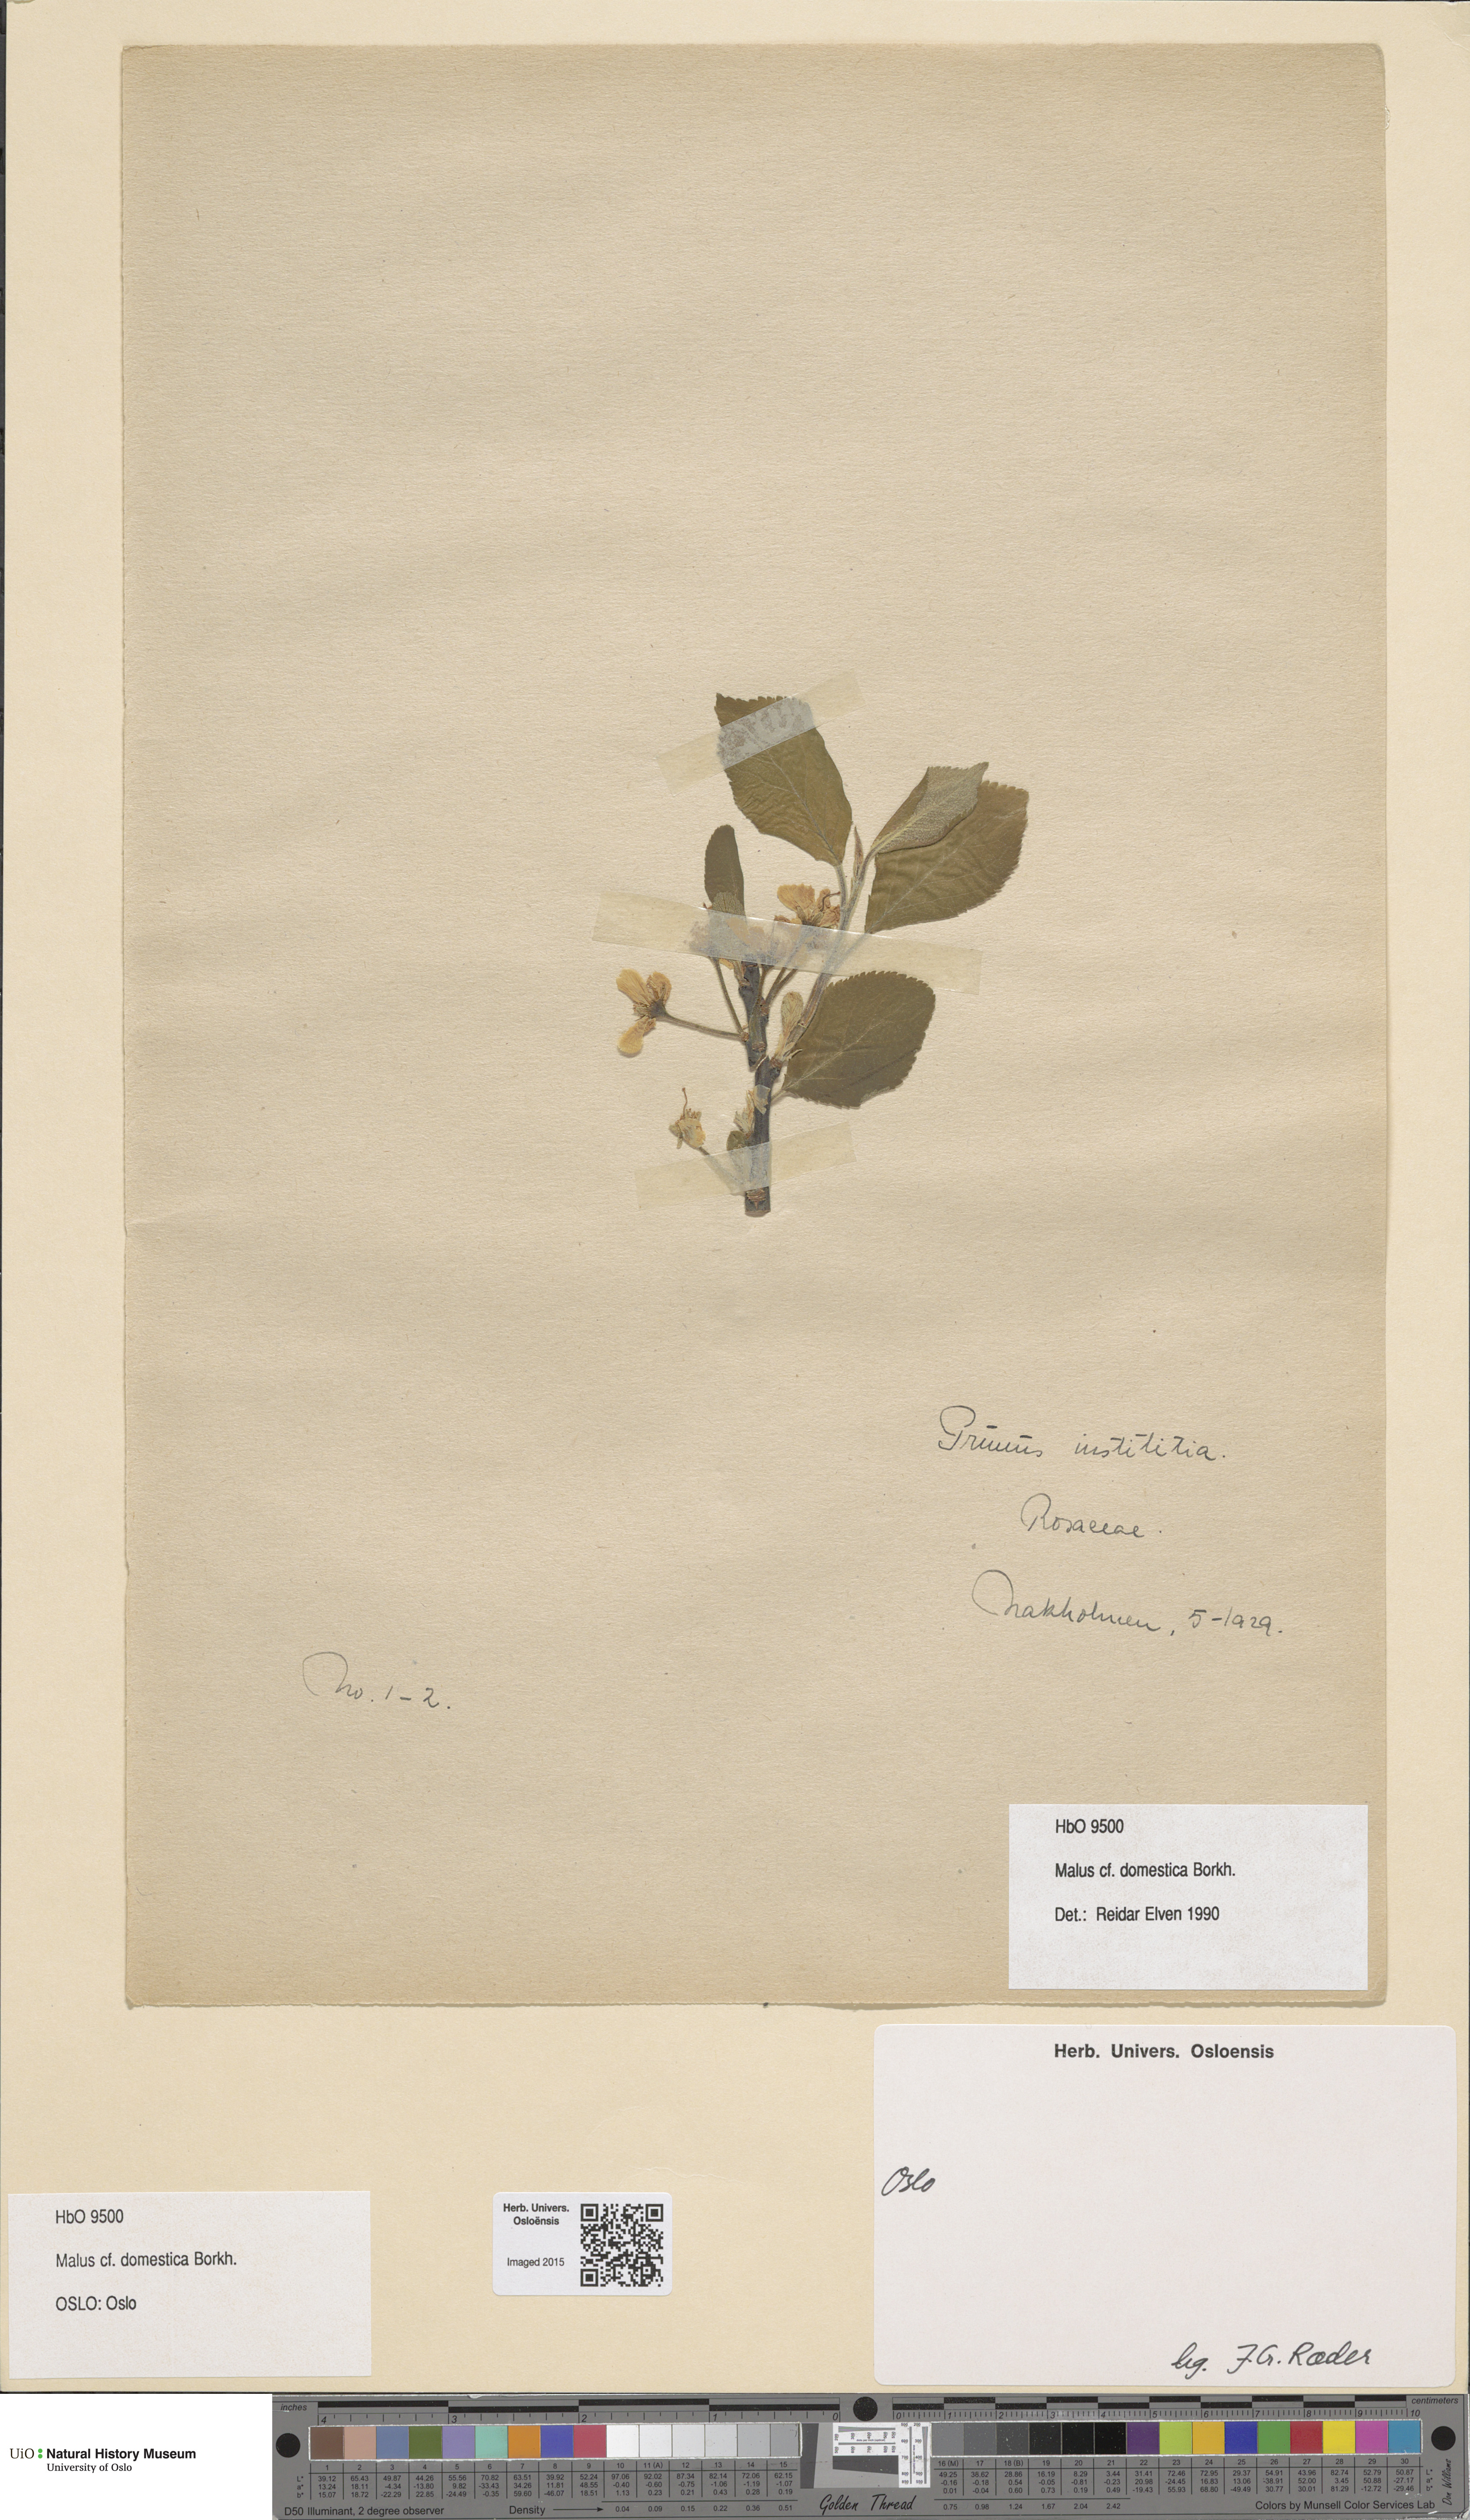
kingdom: Plantae
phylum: Tracheophyta
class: Magnoliopsida
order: Rosales
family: Rosaceae
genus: Prunus
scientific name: Prunus domestica
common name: Wild plum
